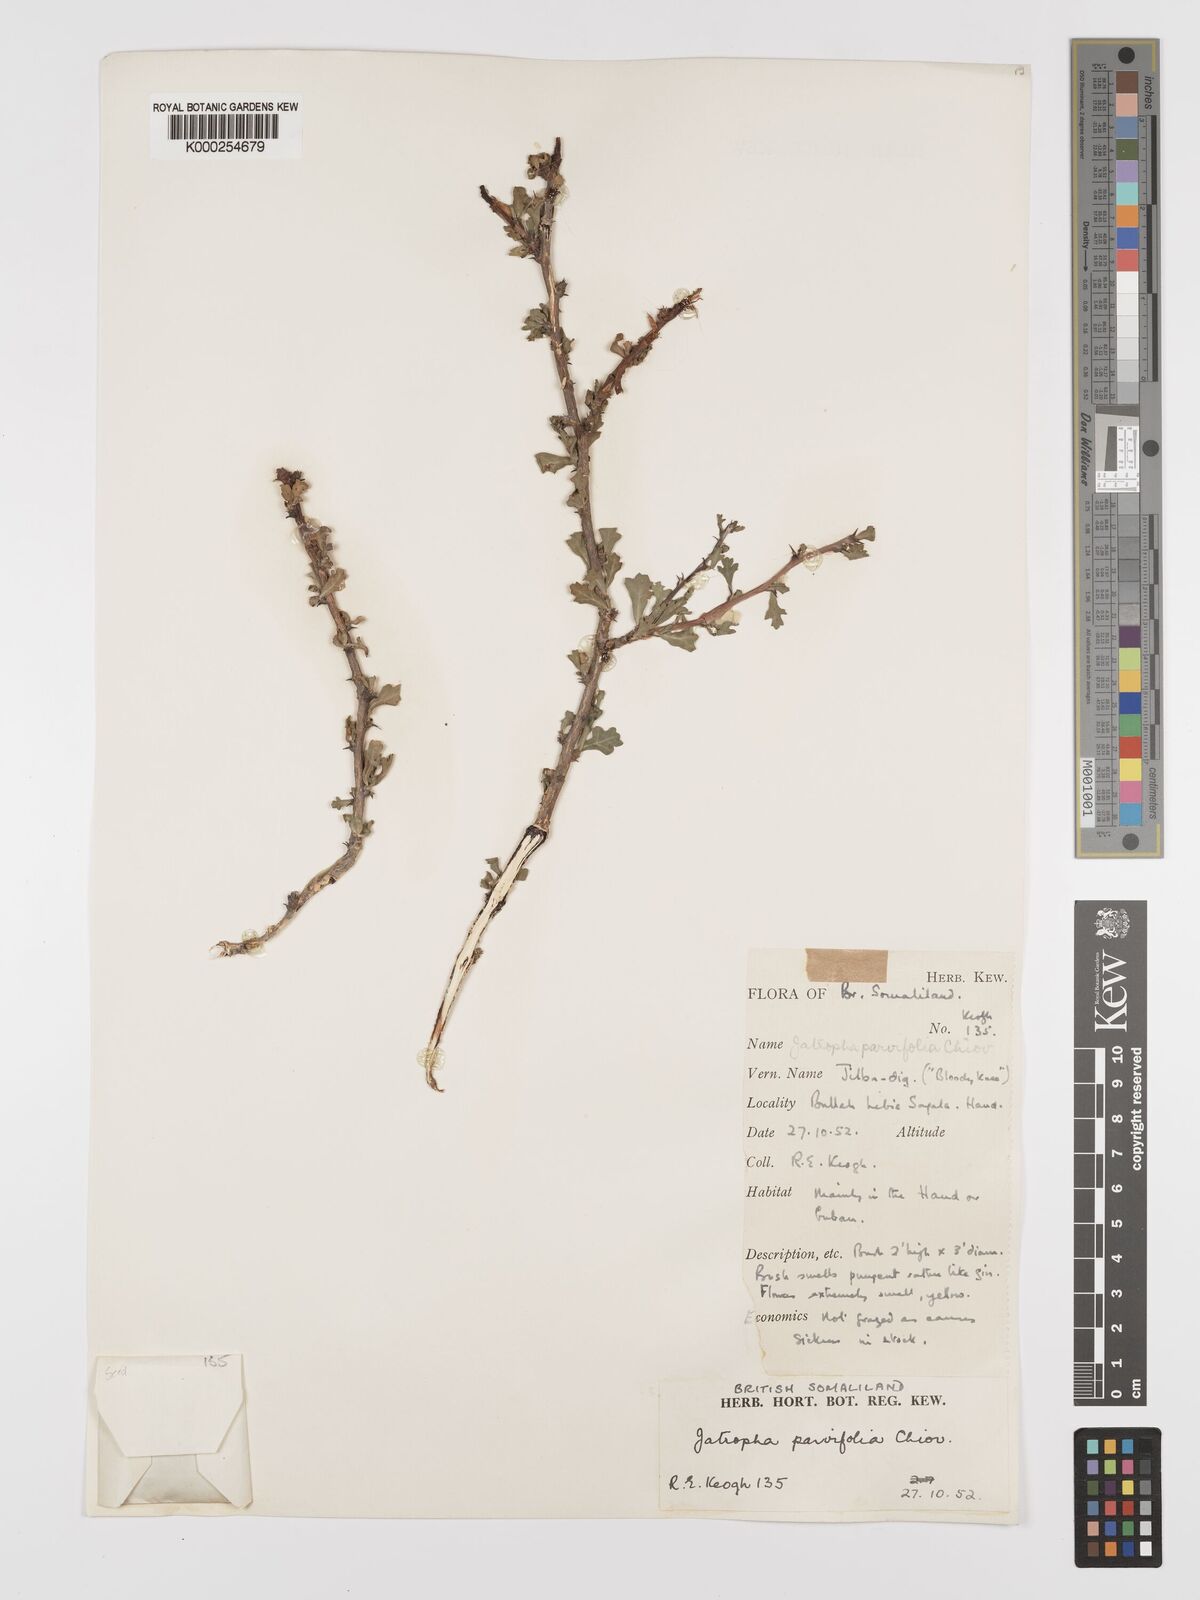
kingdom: Plantae
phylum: Tracheophyta
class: Magnoliopsida
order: Malpighiales
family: Euphorbiaceae
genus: Jatropha
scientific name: Jatropha rivae
